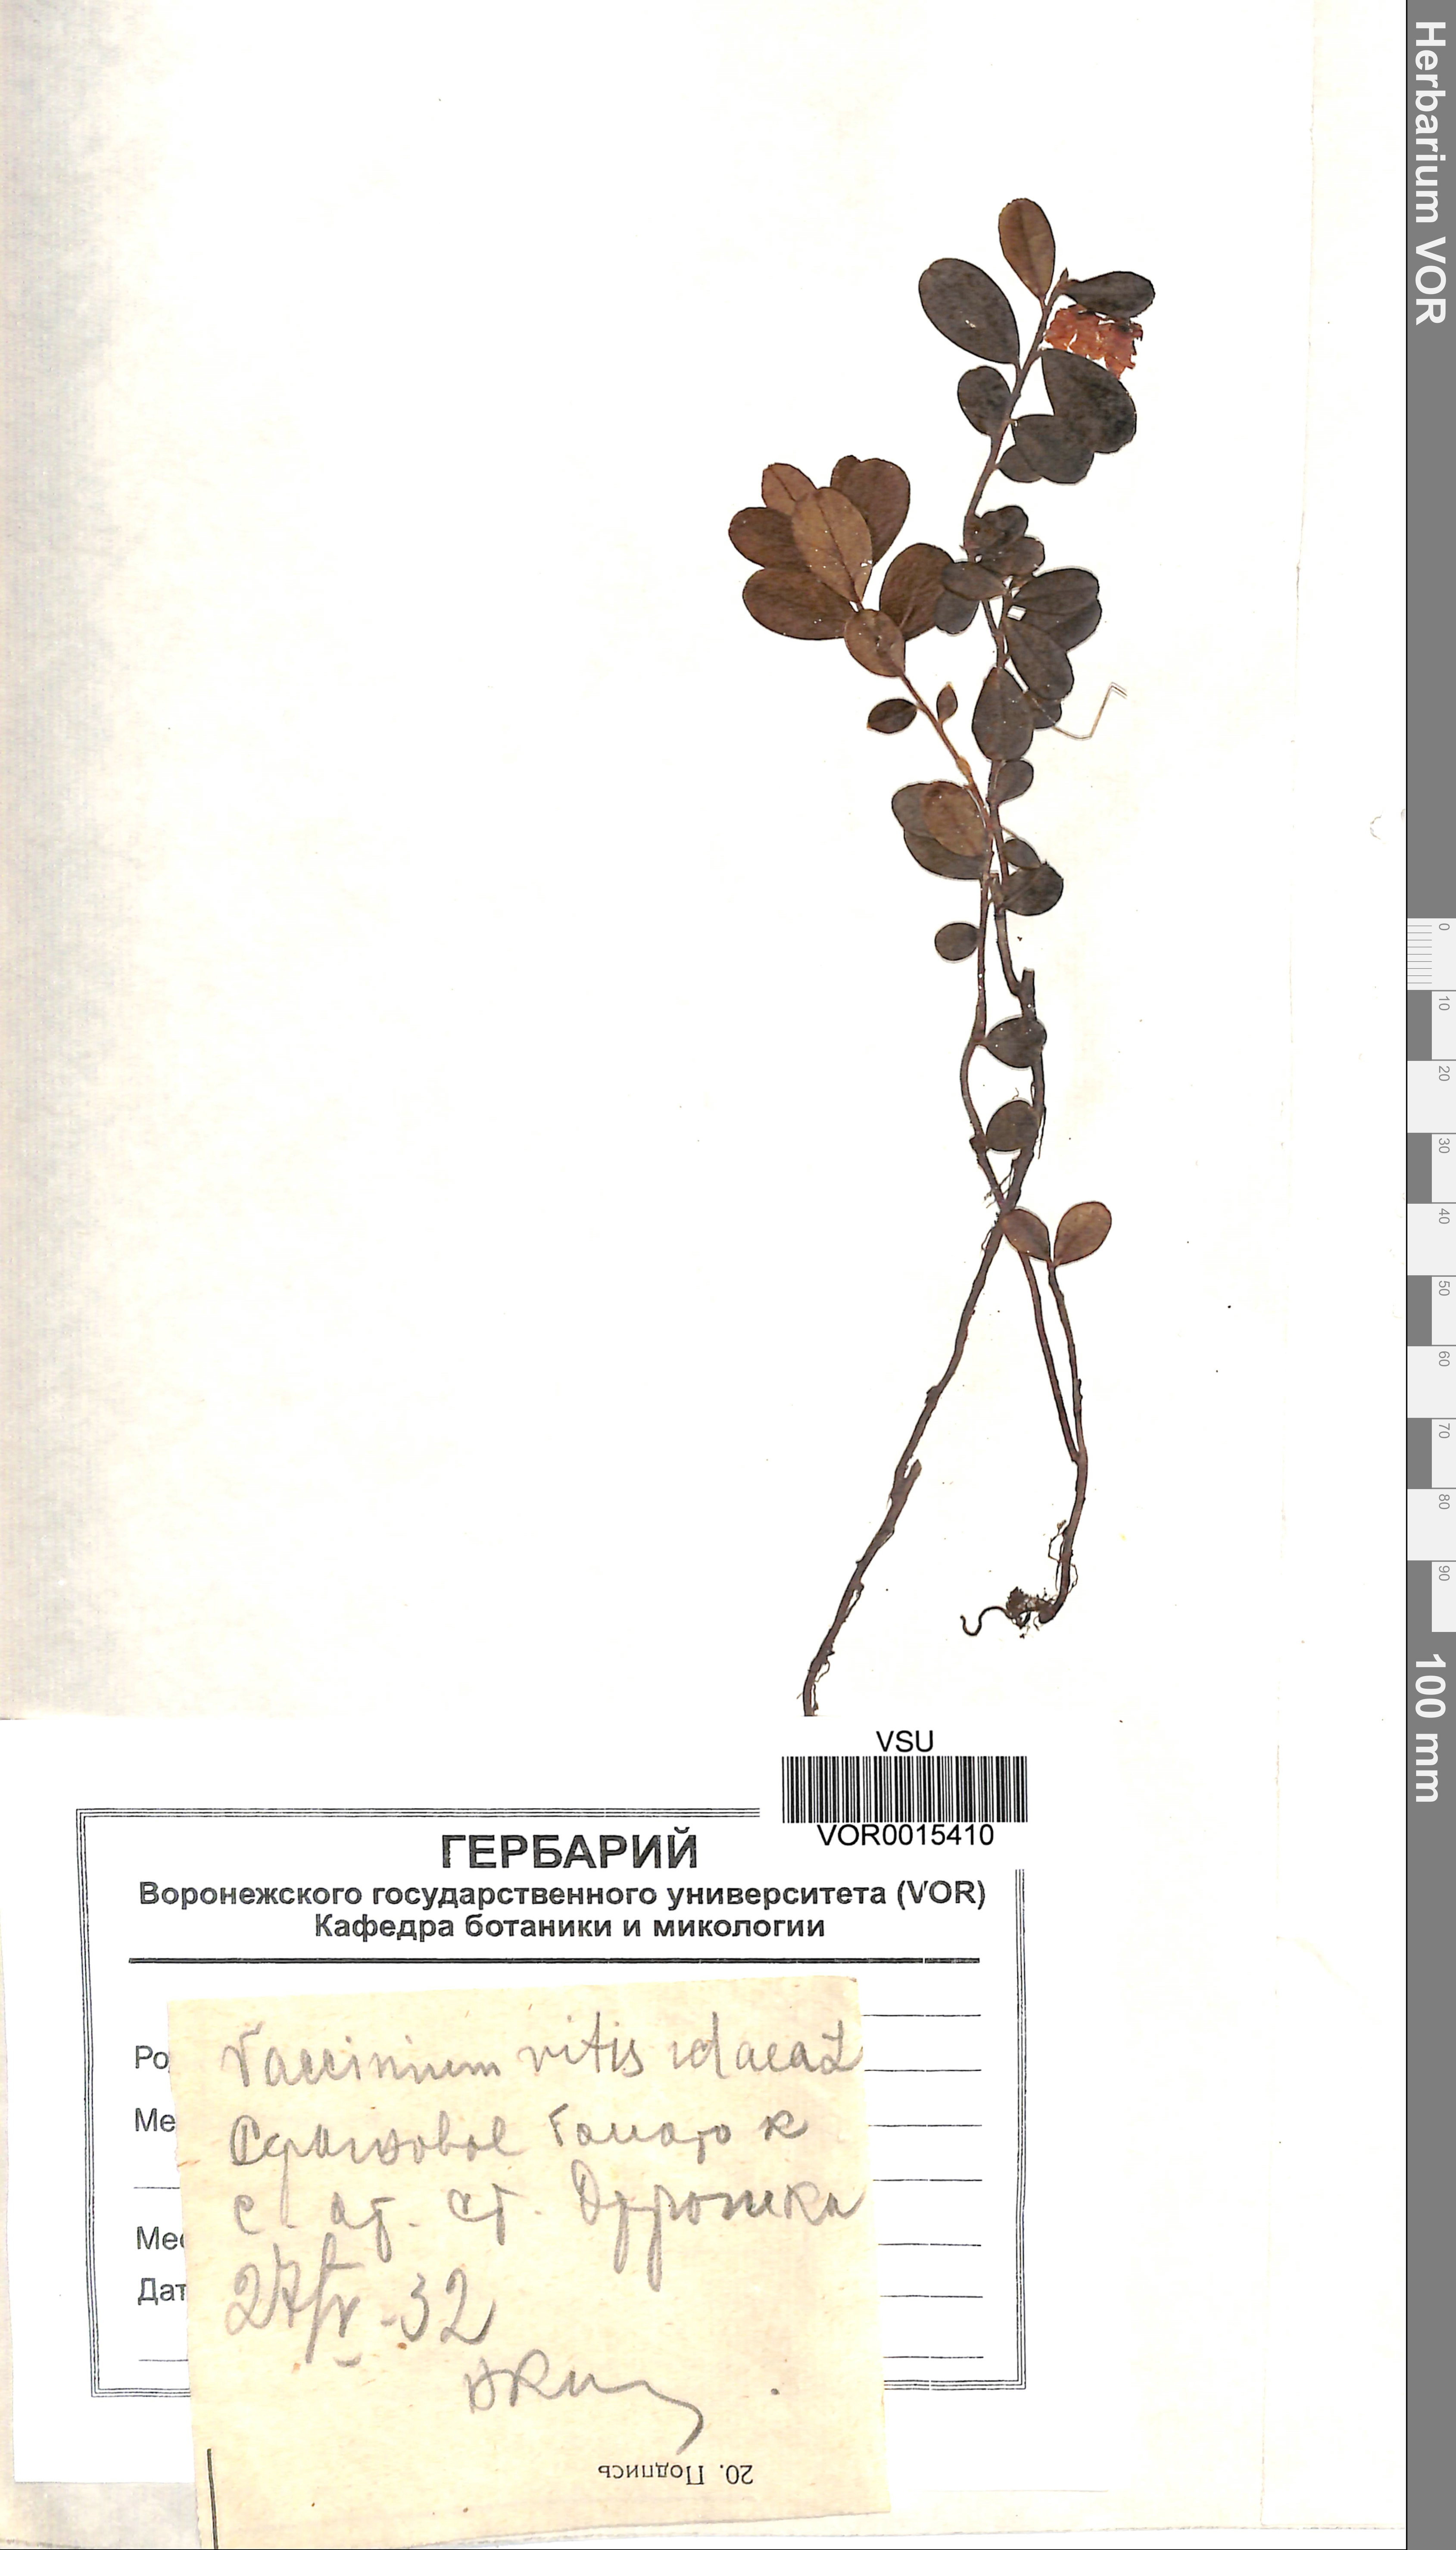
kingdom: Plantae
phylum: Tracheophyta
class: Magnoliopsida
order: Ericales
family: Ericaceae
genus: Vaccinium
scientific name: Vaccinium vitis-idaea
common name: Cowberry
